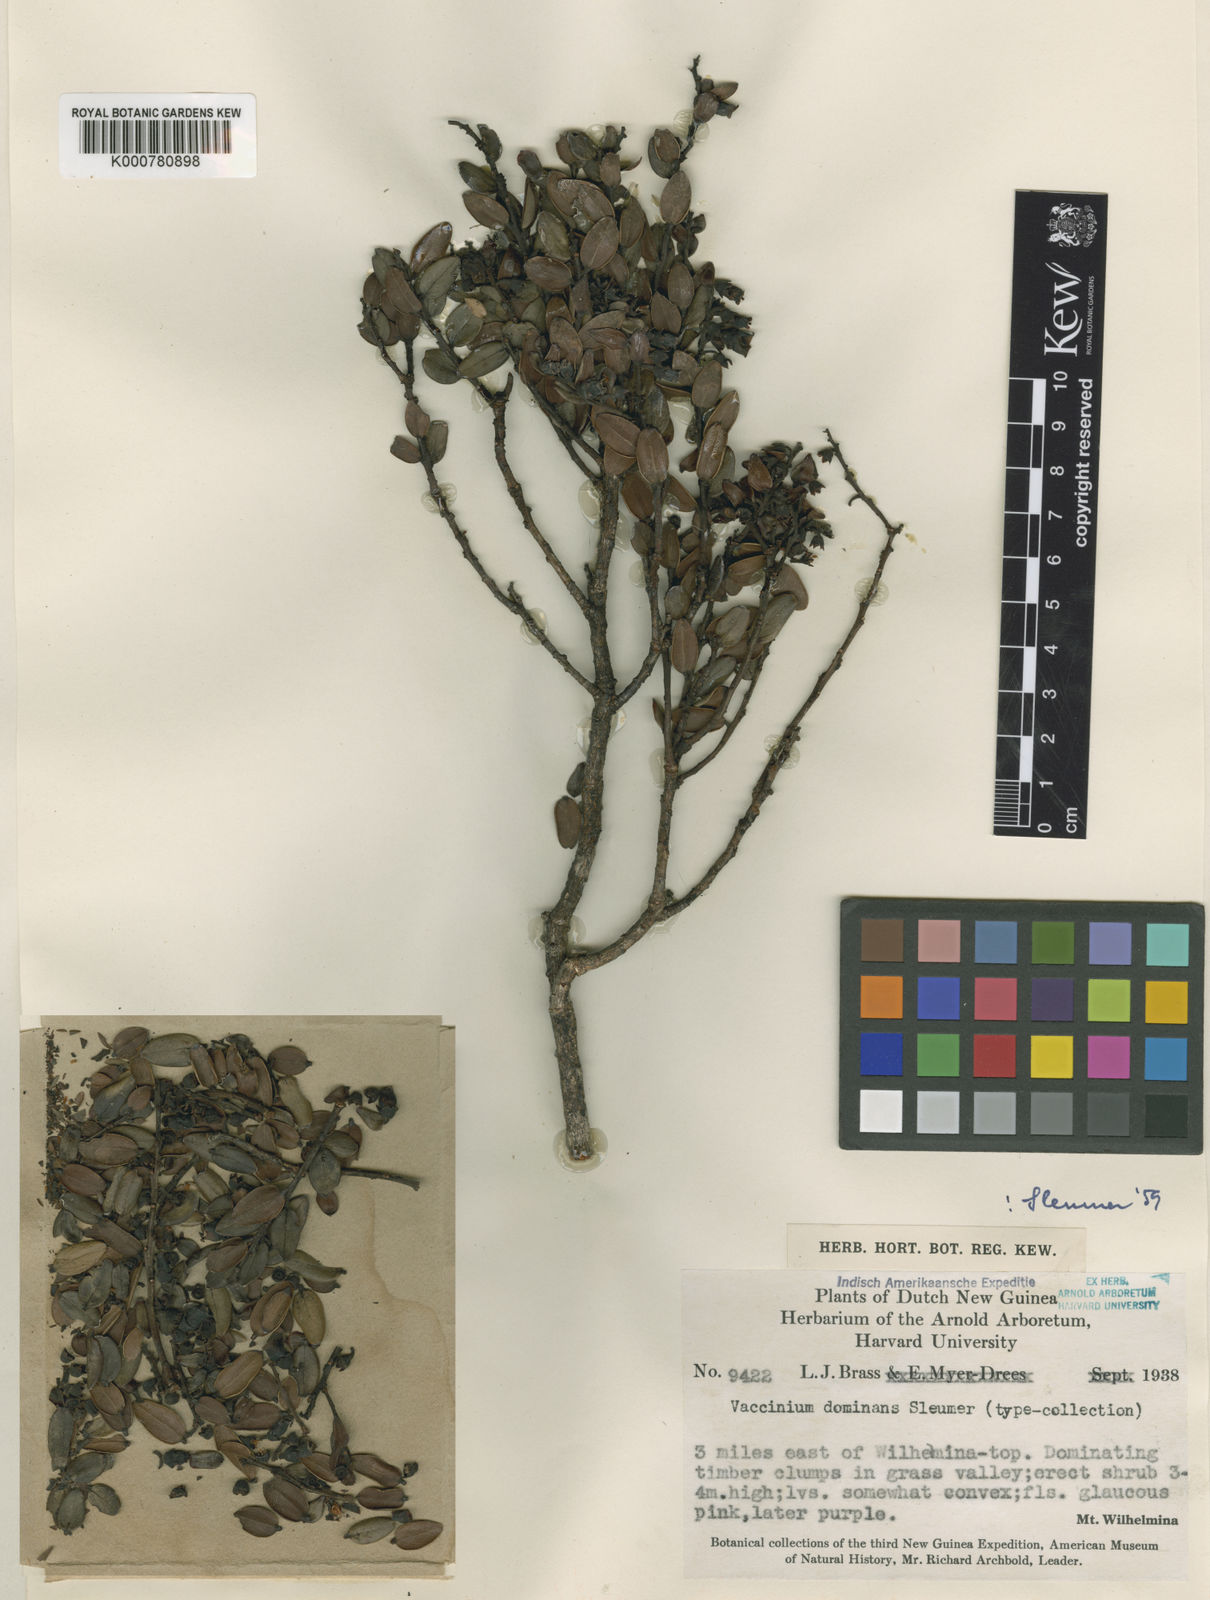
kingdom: Plantae
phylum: Tracheophyta
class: Magnoliopsida
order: Ericales
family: Ericaceae
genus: Vaccinium
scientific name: Vaccinium dominans
